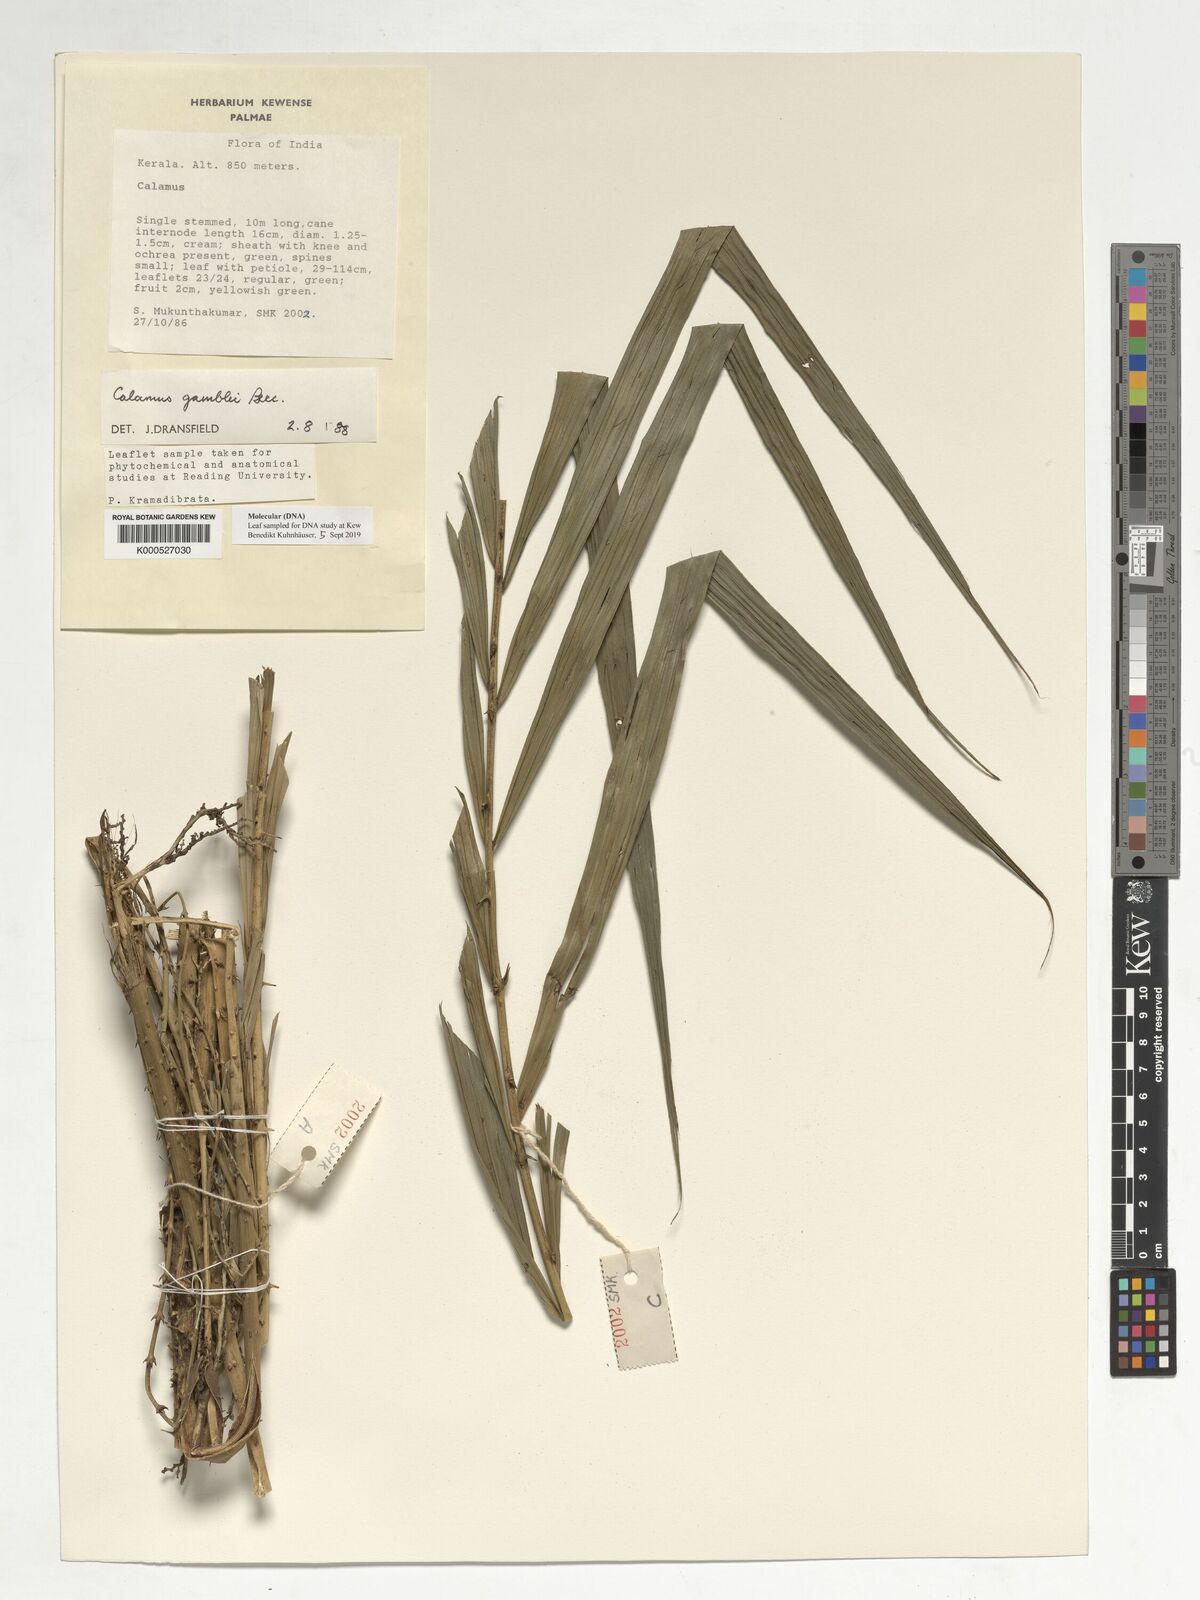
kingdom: Plantae
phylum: Tracheophyta
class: Liliopsida
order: Arecales
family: Arecaceae
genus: Calamus
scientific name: Calamus gamblei
